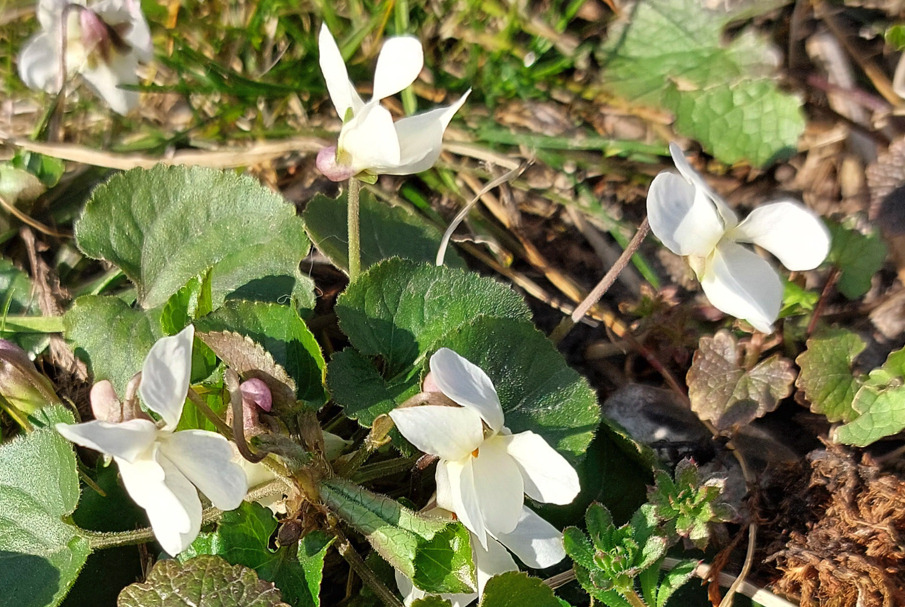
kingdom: Plantae
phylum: Tracheophyta
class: Magnoliopsida
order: Malpighiales
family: Violaceae
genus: Viola
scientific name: Viola odorata
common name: Marts-viol
